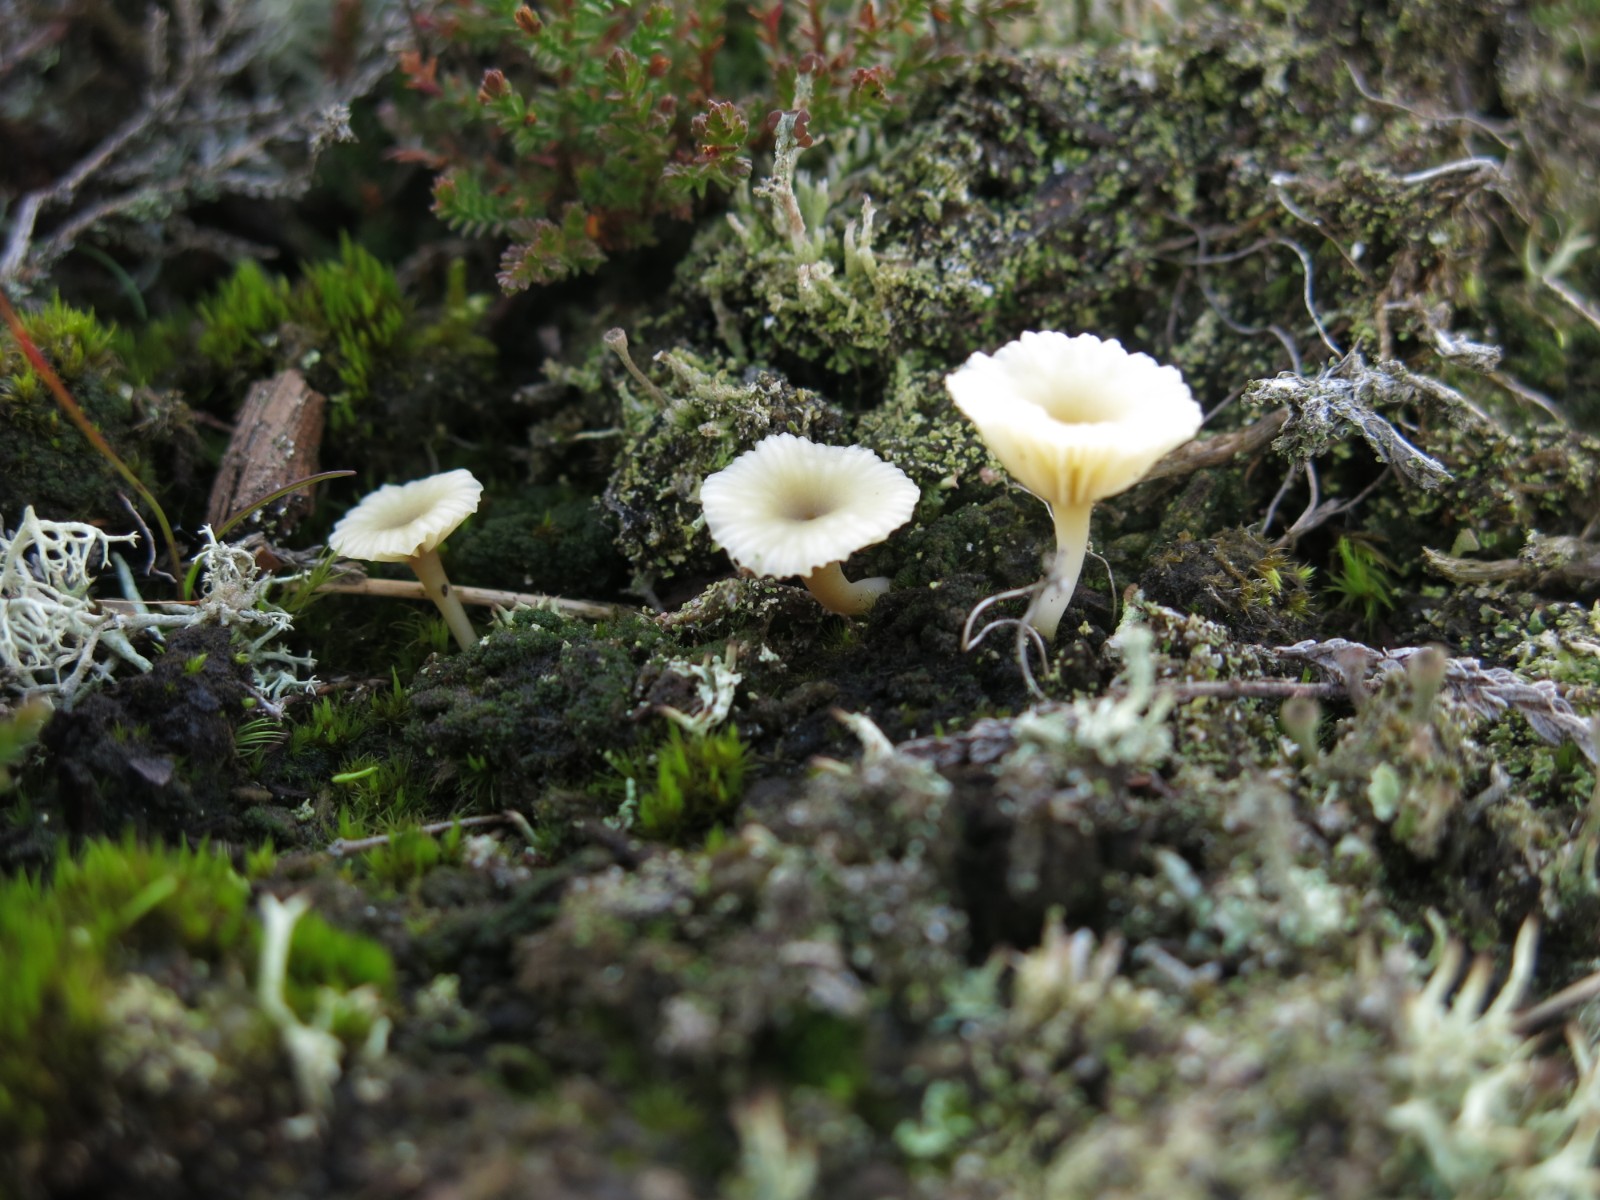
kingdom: Fungi
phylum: Basidiomycota
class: Agaricomycetes
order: Agaricales
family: Hygrophoraceae
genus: Lichenomphalia
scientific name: Lichenomphalia umbellifera
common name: tørve-lavhat
